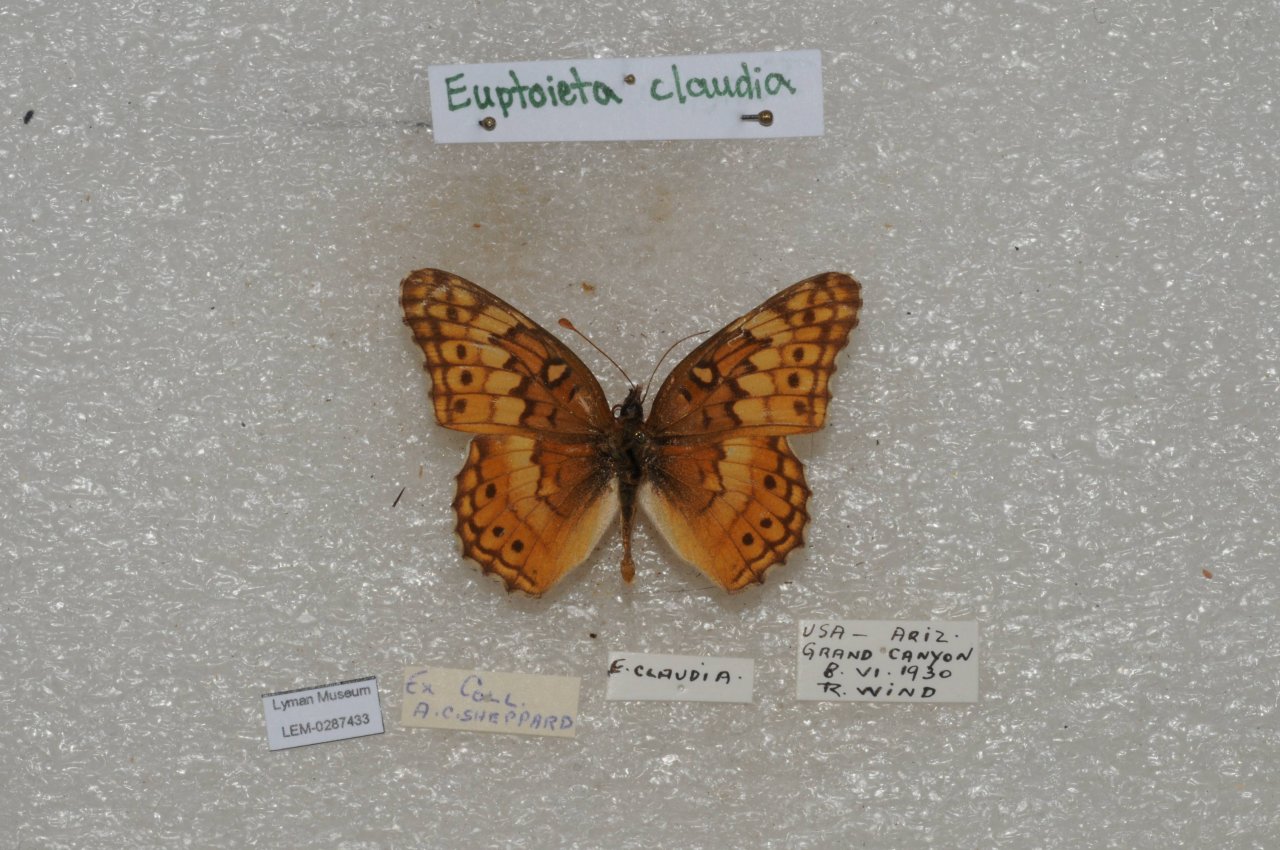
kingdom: Animalia
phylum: Arthropoda
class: Insecta
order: Lepidoptera
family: Nymphalidae
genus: Euptoieta
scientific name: Euptoieta claudia
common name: Variegated Fritillary
